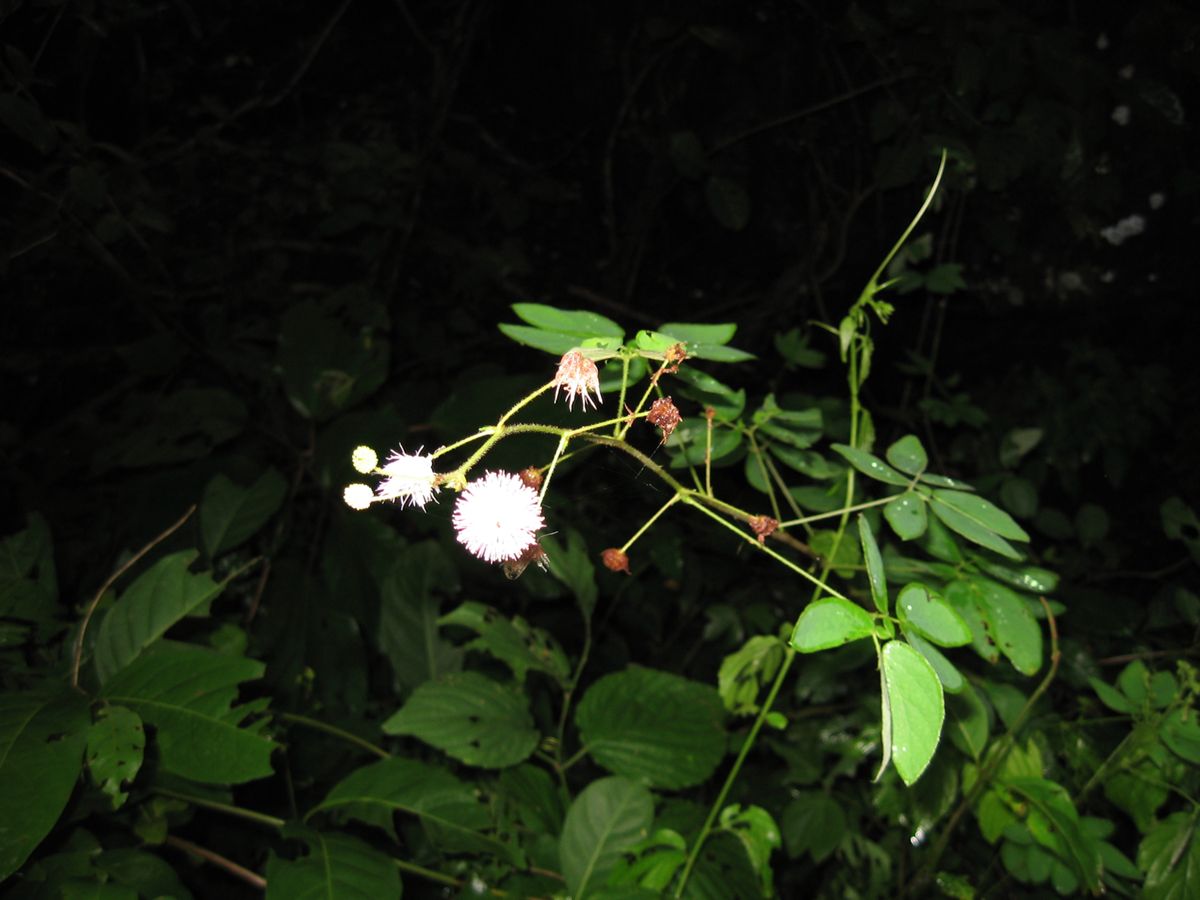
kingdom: Plantae
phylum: Tracheophyta
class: Magnoliopsida
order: Fabales
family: Fabaceae
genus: Mimosa
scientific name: Mimosa albida
